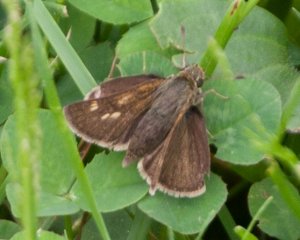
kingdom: Animalia
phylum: Arthropoda
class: Insecta
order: Lepidoptera
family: Hesperiidae
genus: Polites
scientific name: Polites egeremet
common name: Northern Broken-Dash
